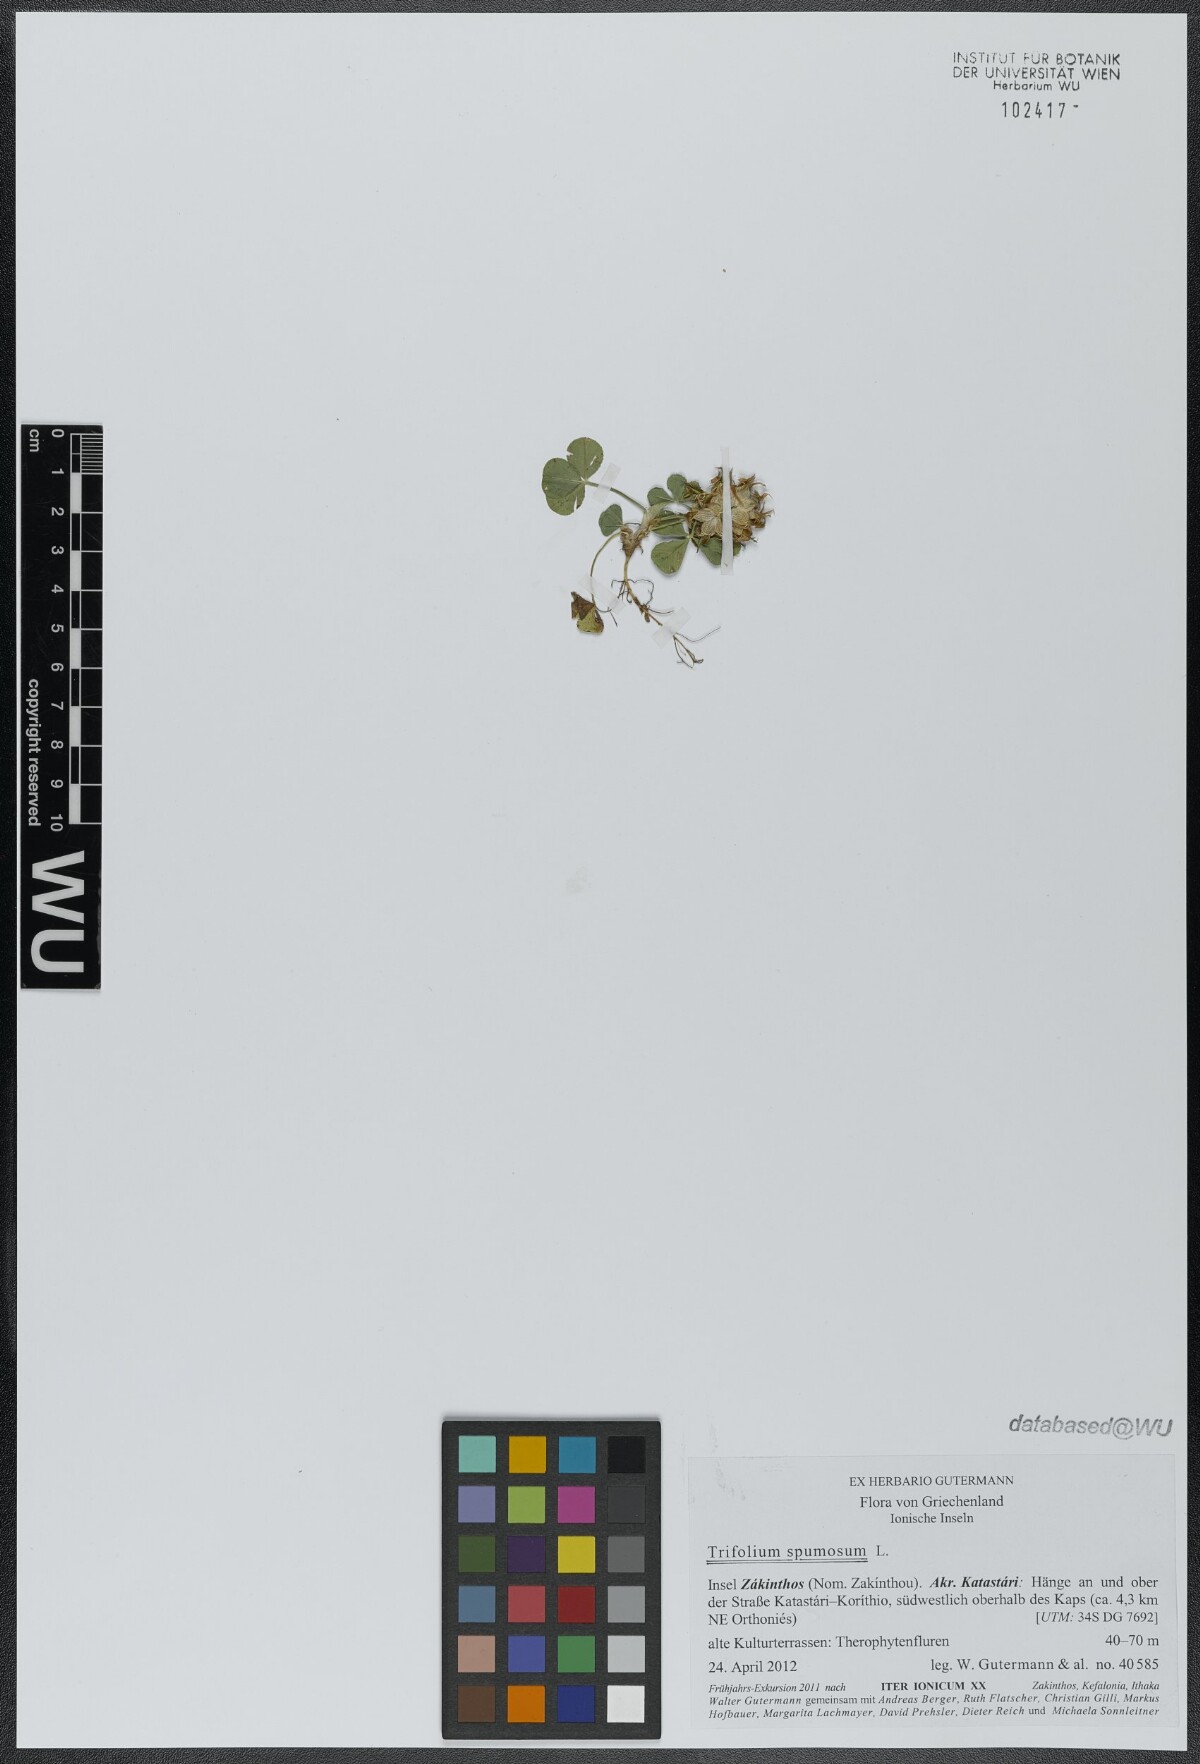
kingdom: Plantae
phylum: Tracheophyta
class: Magnoliopsida
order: Fabales
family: Fabaceae
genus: Trifolium
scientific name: Trifolium spumosum
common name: Mediterranean clover
